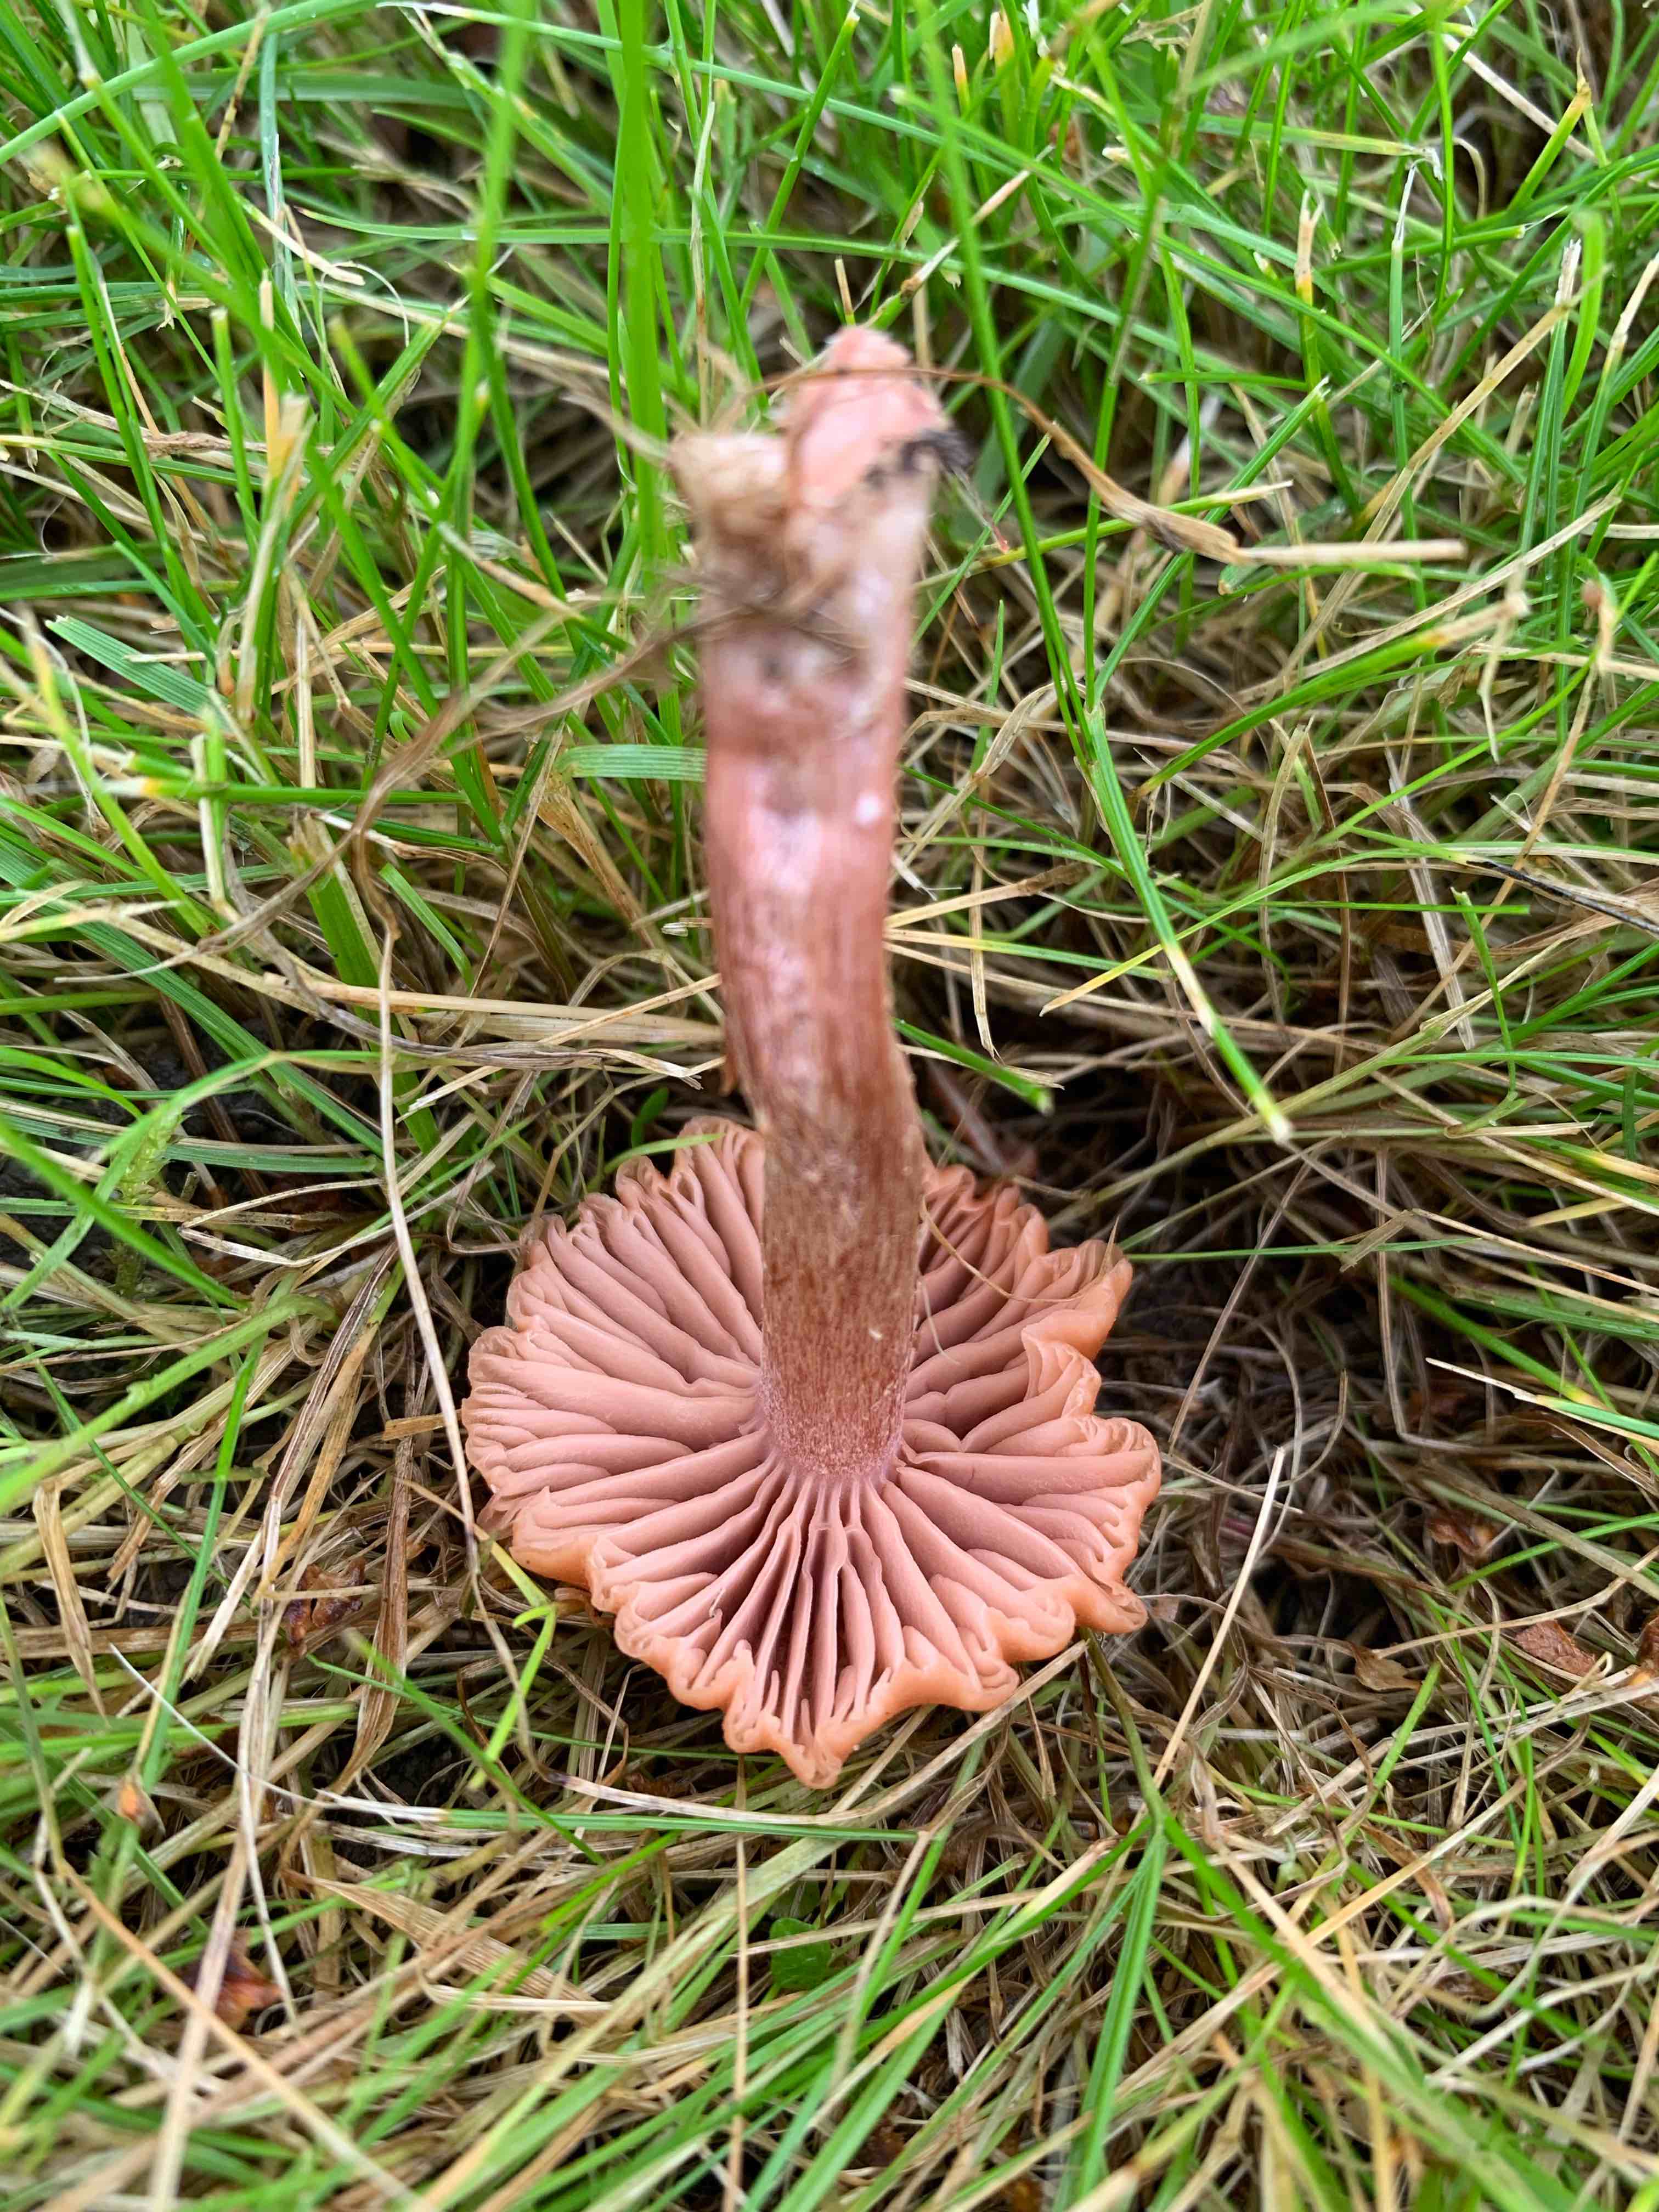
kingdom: Fungi
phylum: Basidiomycota
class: Agaricomycetes
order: Agaricales
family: Hydnangiaceae
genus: Laccaria
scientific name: Laccaria laccata
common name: rød ametysthat
